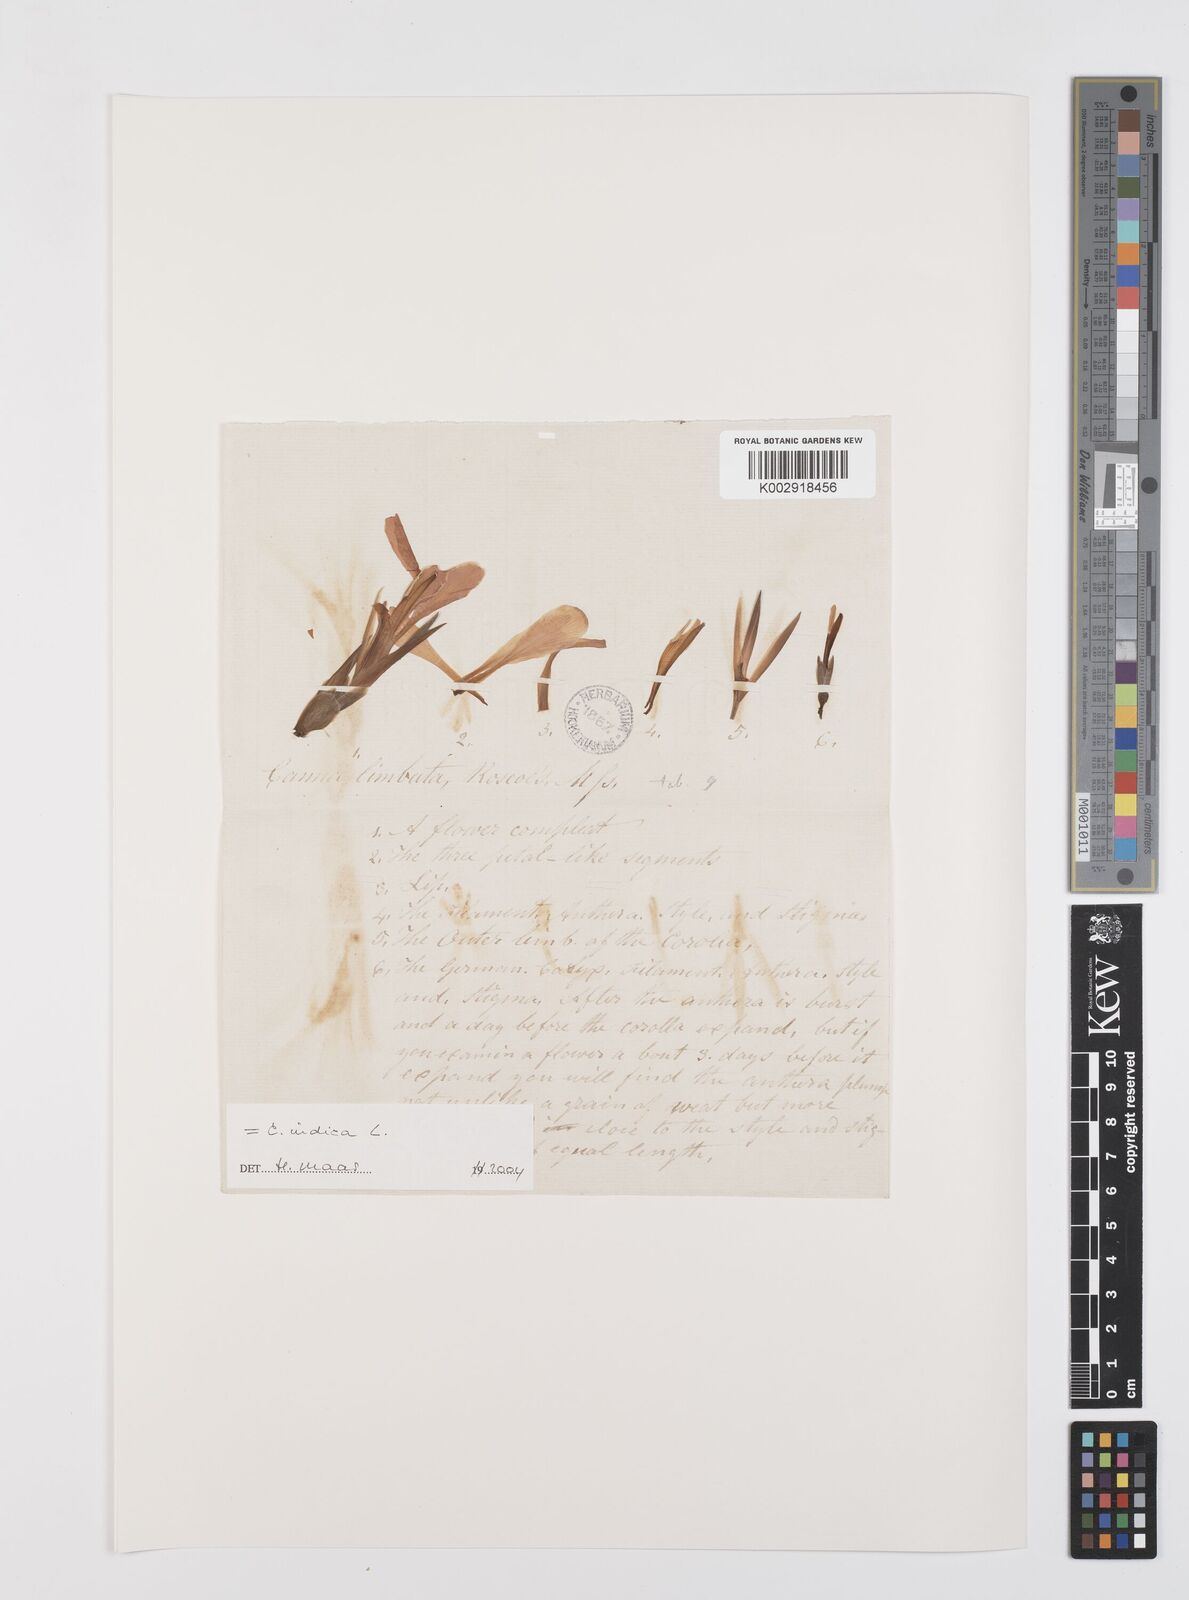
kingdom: Plantae
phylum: Tracheophyta
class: Liliopsida
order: Zingiberales
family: Cannaceae
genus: Canna
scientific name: Canna indica
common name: Indian shot
